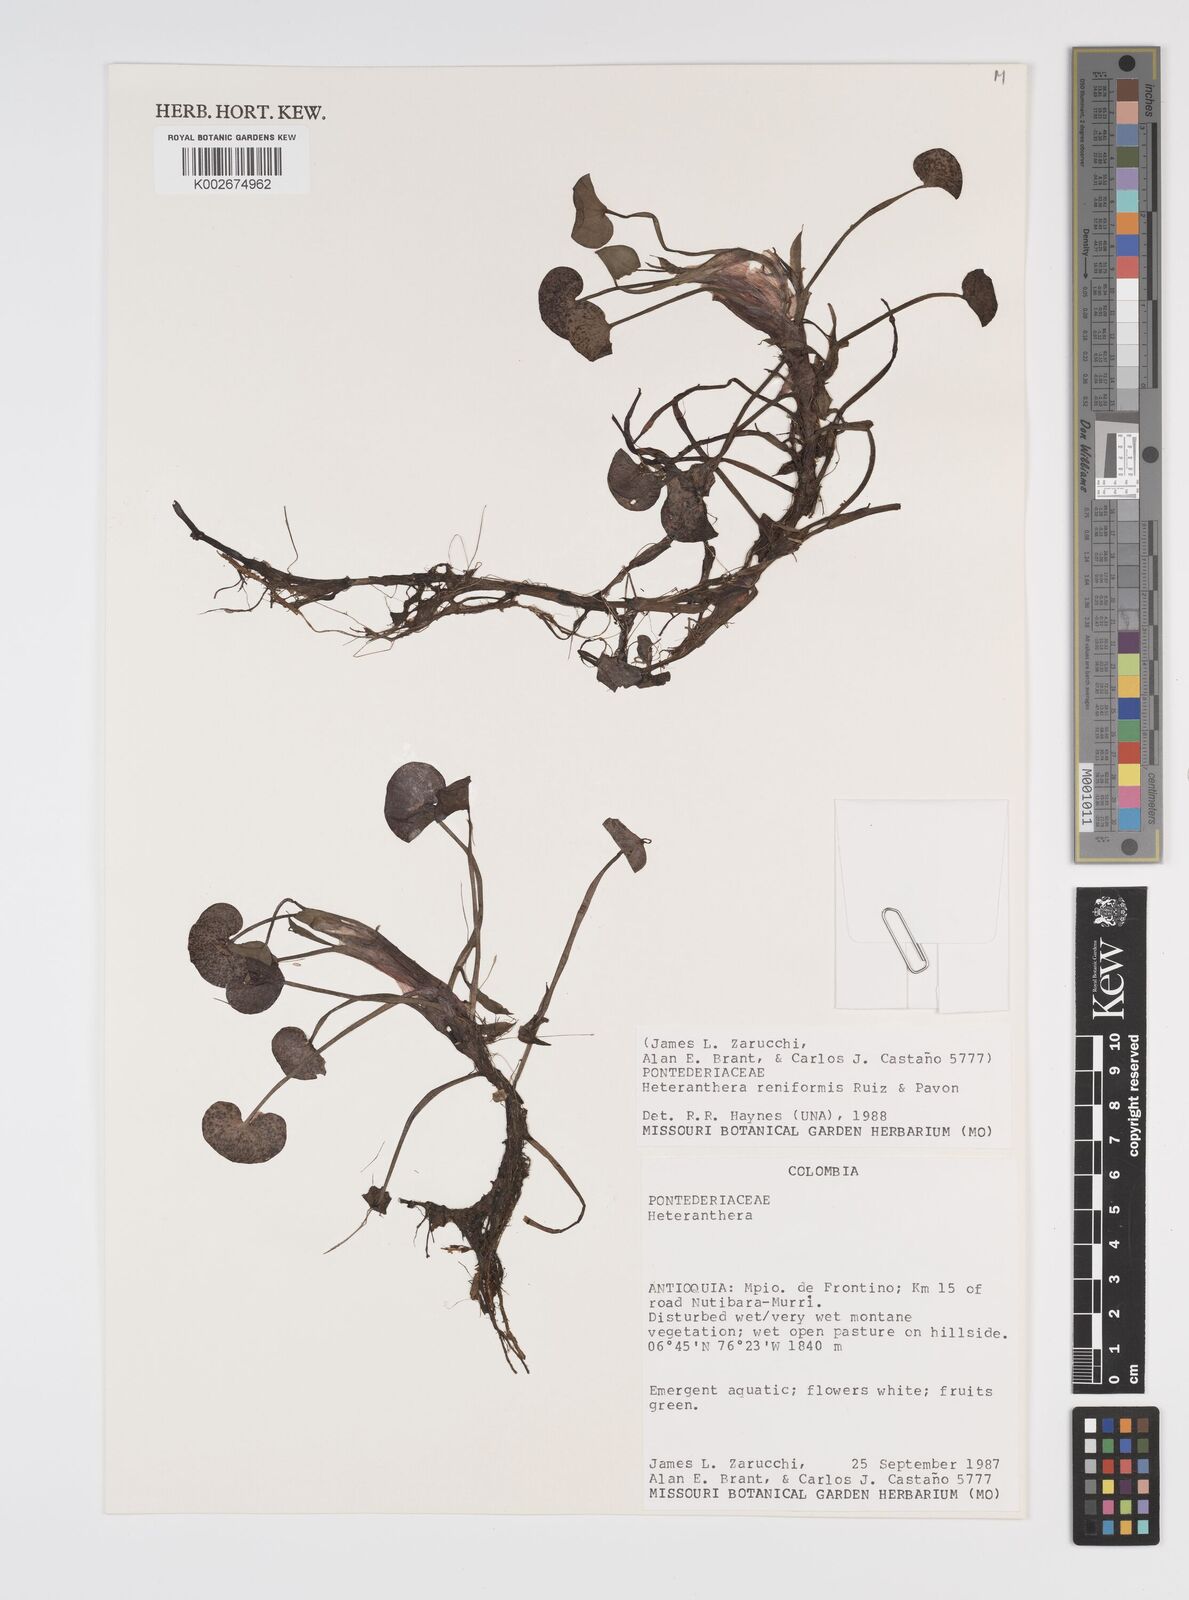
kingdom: Plantae
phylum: Tracheophyta
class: Liliopsida
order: Commelinales
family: Pontederiaceae
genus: Heteranthera
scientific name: Heteranthera reniformis
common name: Kidneyleaf mudplantain
